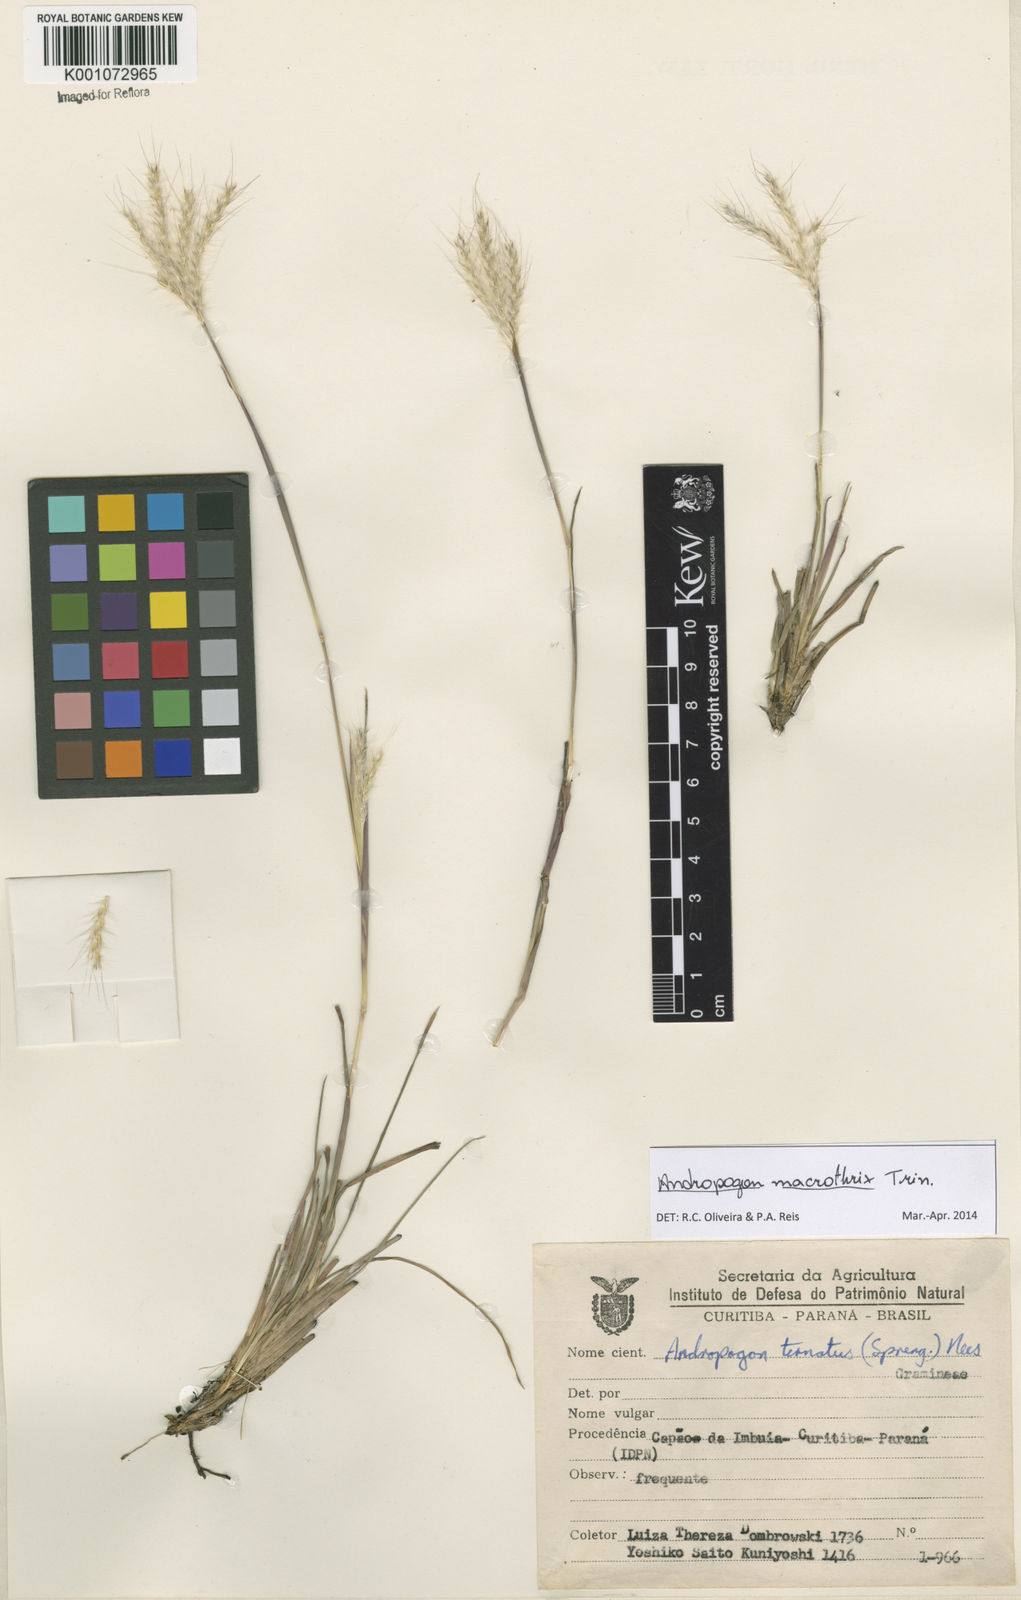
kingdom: Plantae
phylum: Tracheophyta
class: Liliopsida
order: Poales
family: Poaceae
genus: Andropogon
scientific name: Andropogon macrothrix
